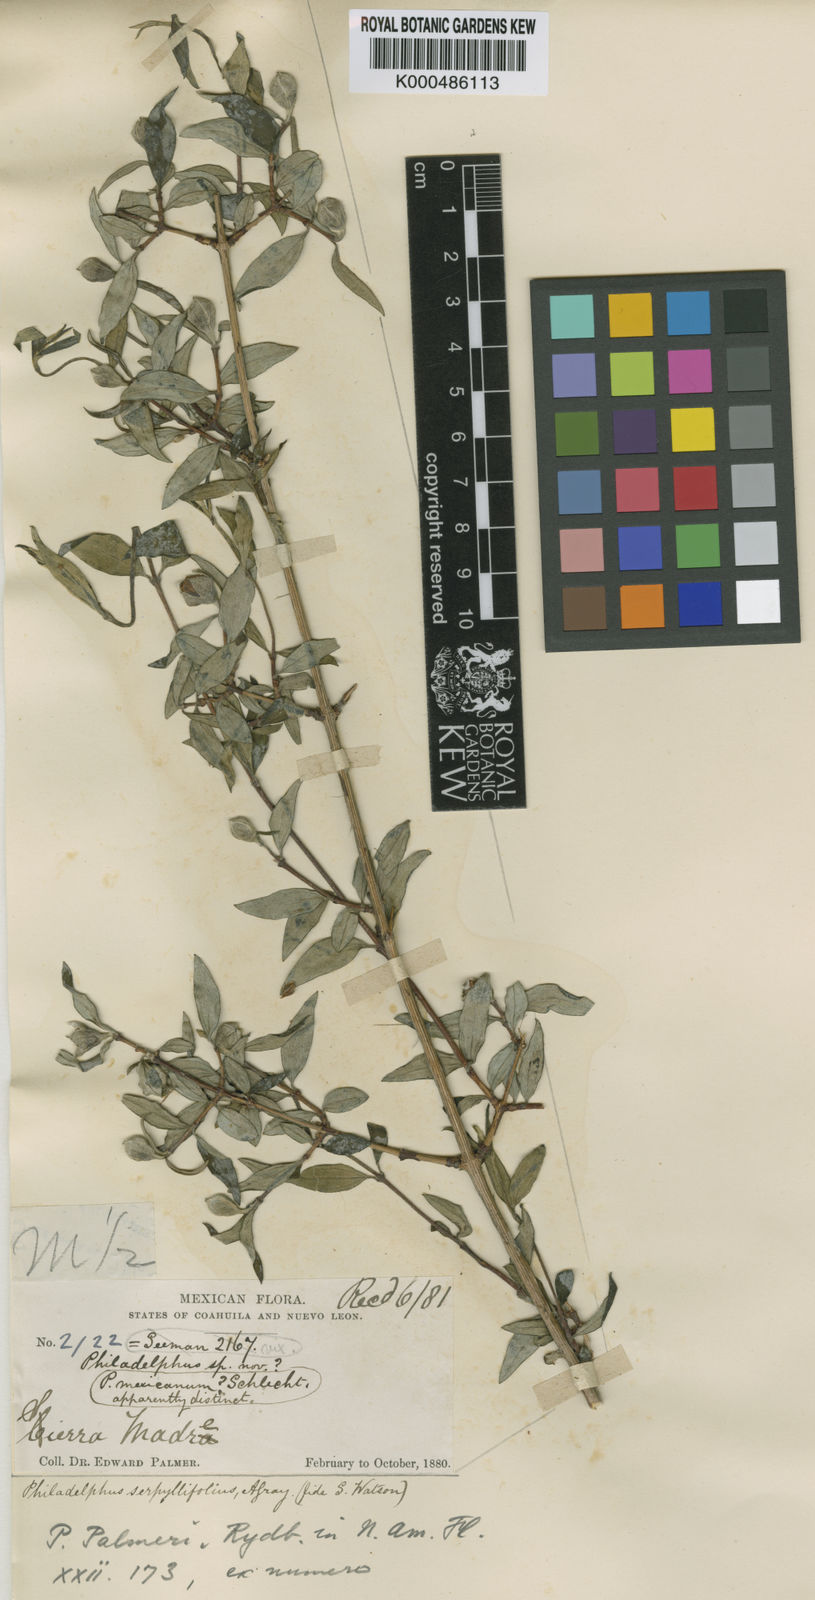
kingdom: Plantae
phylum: Tracheophyta
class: Magnoliopsida
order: Cornales
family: Hydrangeaceae
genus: Philadelphus
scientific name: Philadelphus palmeri
